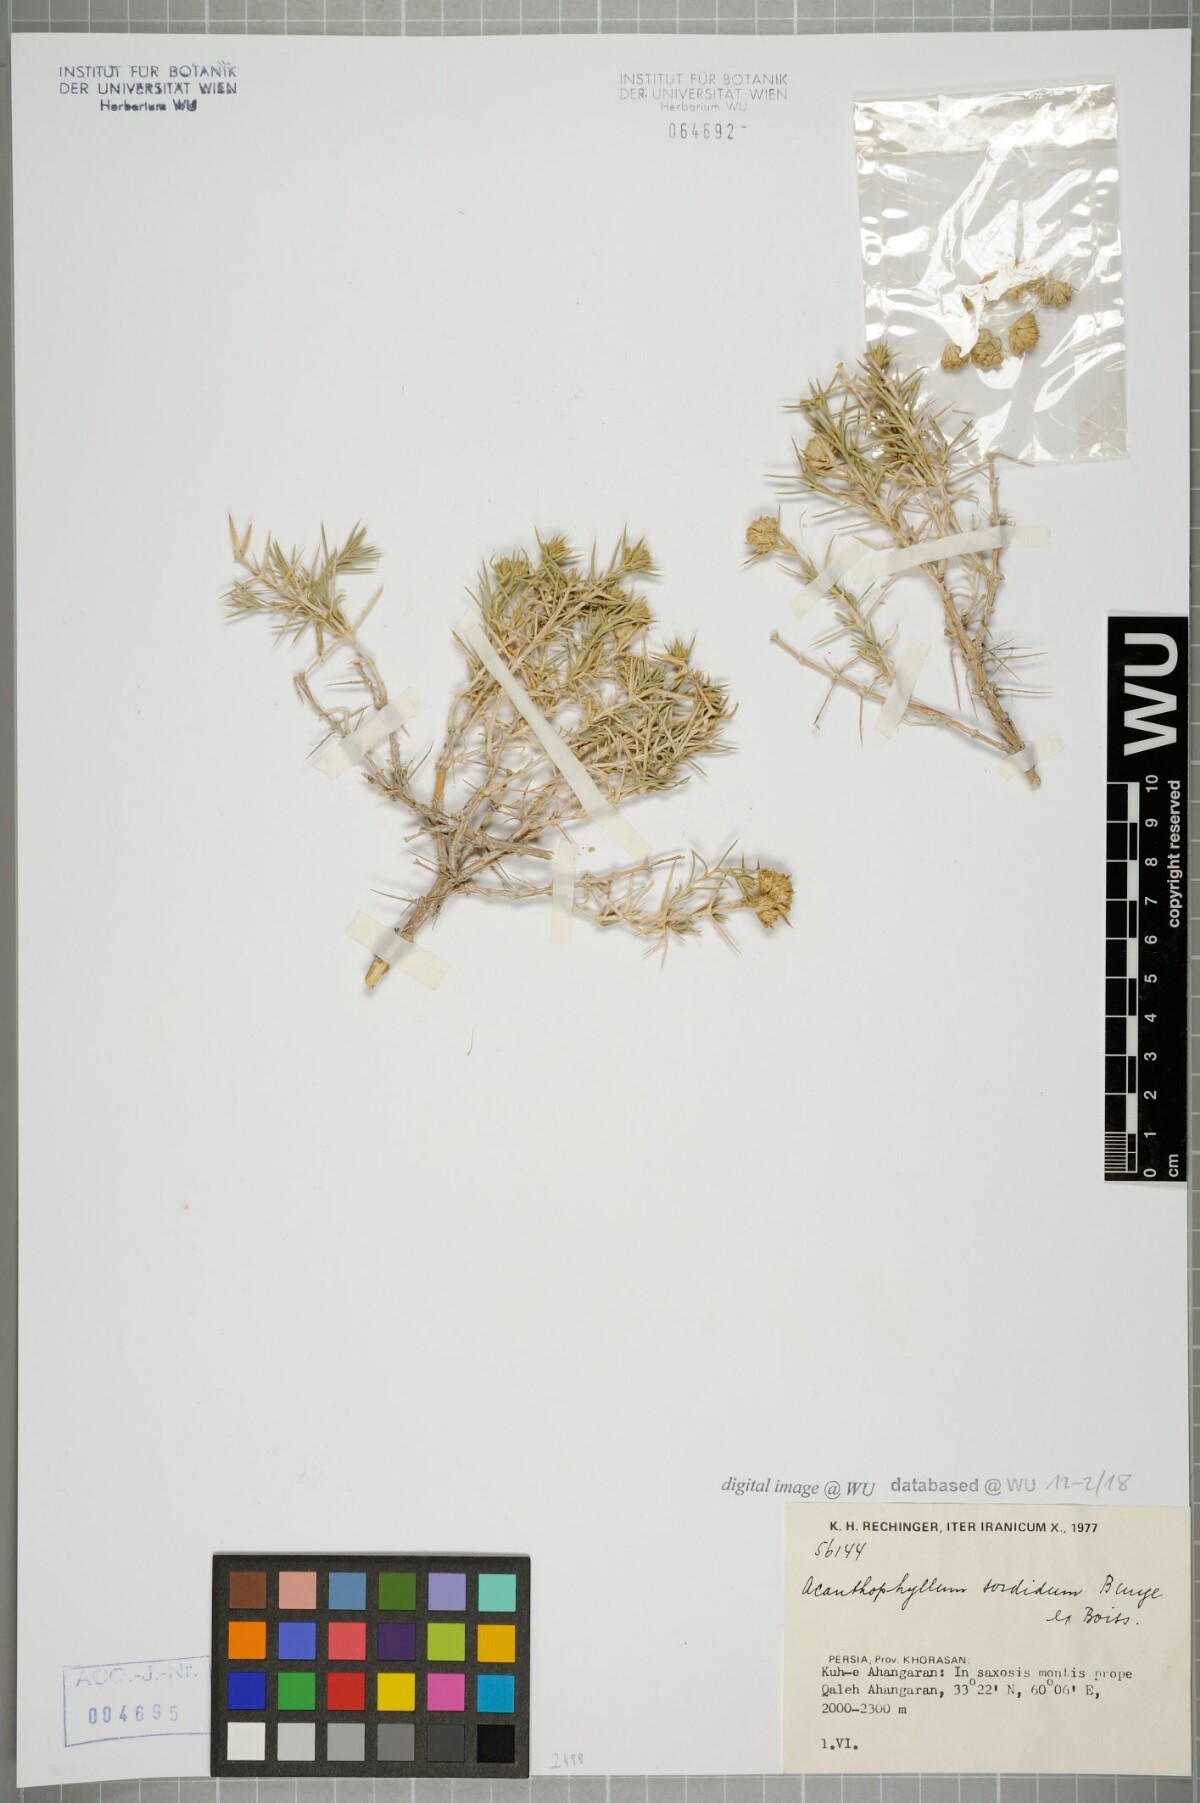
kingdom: Plantae
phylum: Tracheophyta
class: Magnoliopsida
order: Caryophyllales
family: Caryophyllaceae
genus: Acanthophyllum
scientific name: Acanthophyllum sordidum
